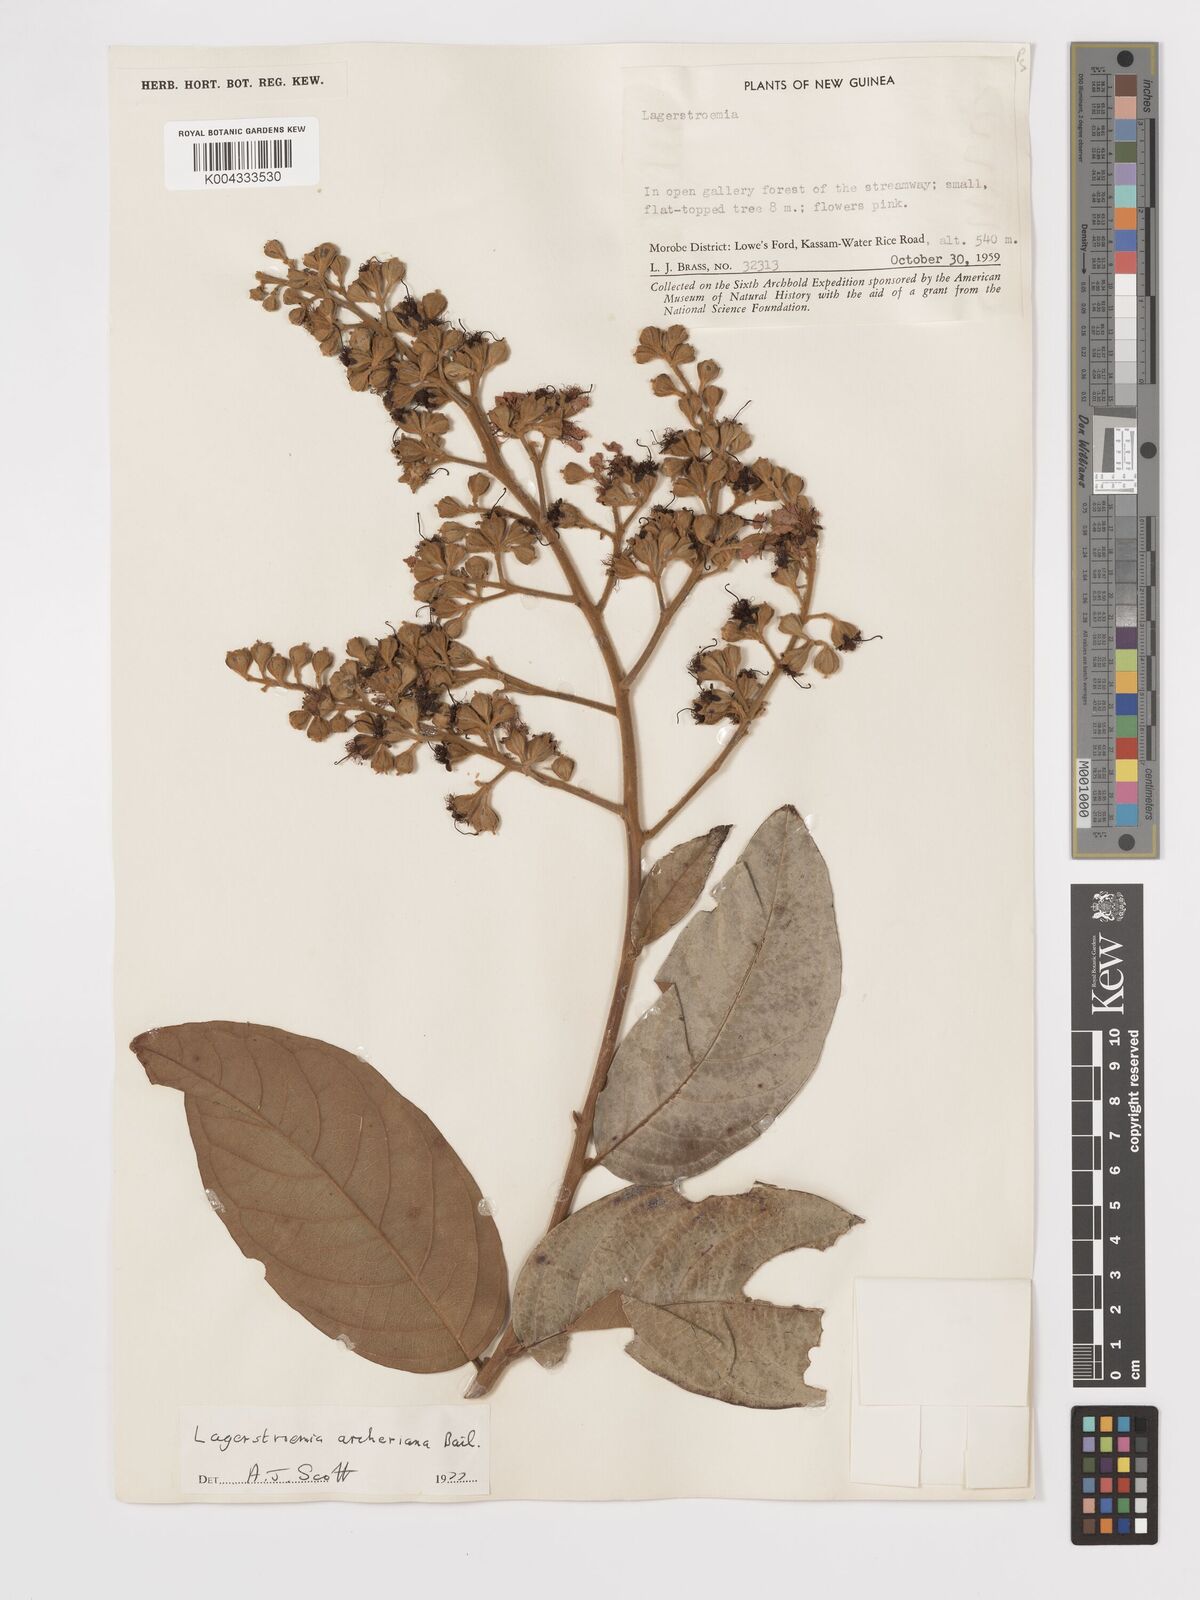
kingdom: Plantae
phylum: Tracheophyta
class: Magnoliopsida
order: Myrtales
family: Lythraceae
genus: Lagerstroemia
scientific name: Lagerstroemia engleriana
